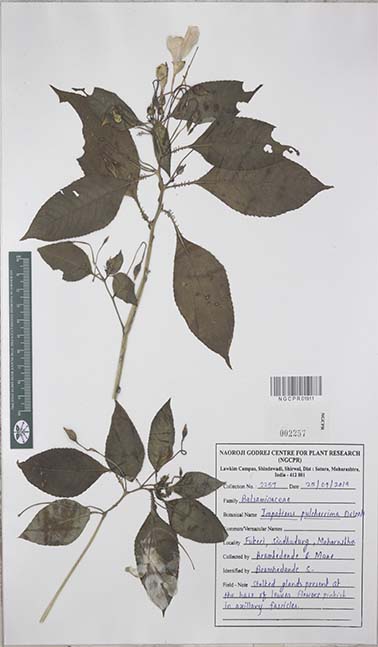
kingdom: Plantae
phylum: Tracheophyta
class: Magnoliopsida
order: Ericales
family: Balsaminaceae
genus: Impatiens
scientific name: Impatiens pulcherrima
